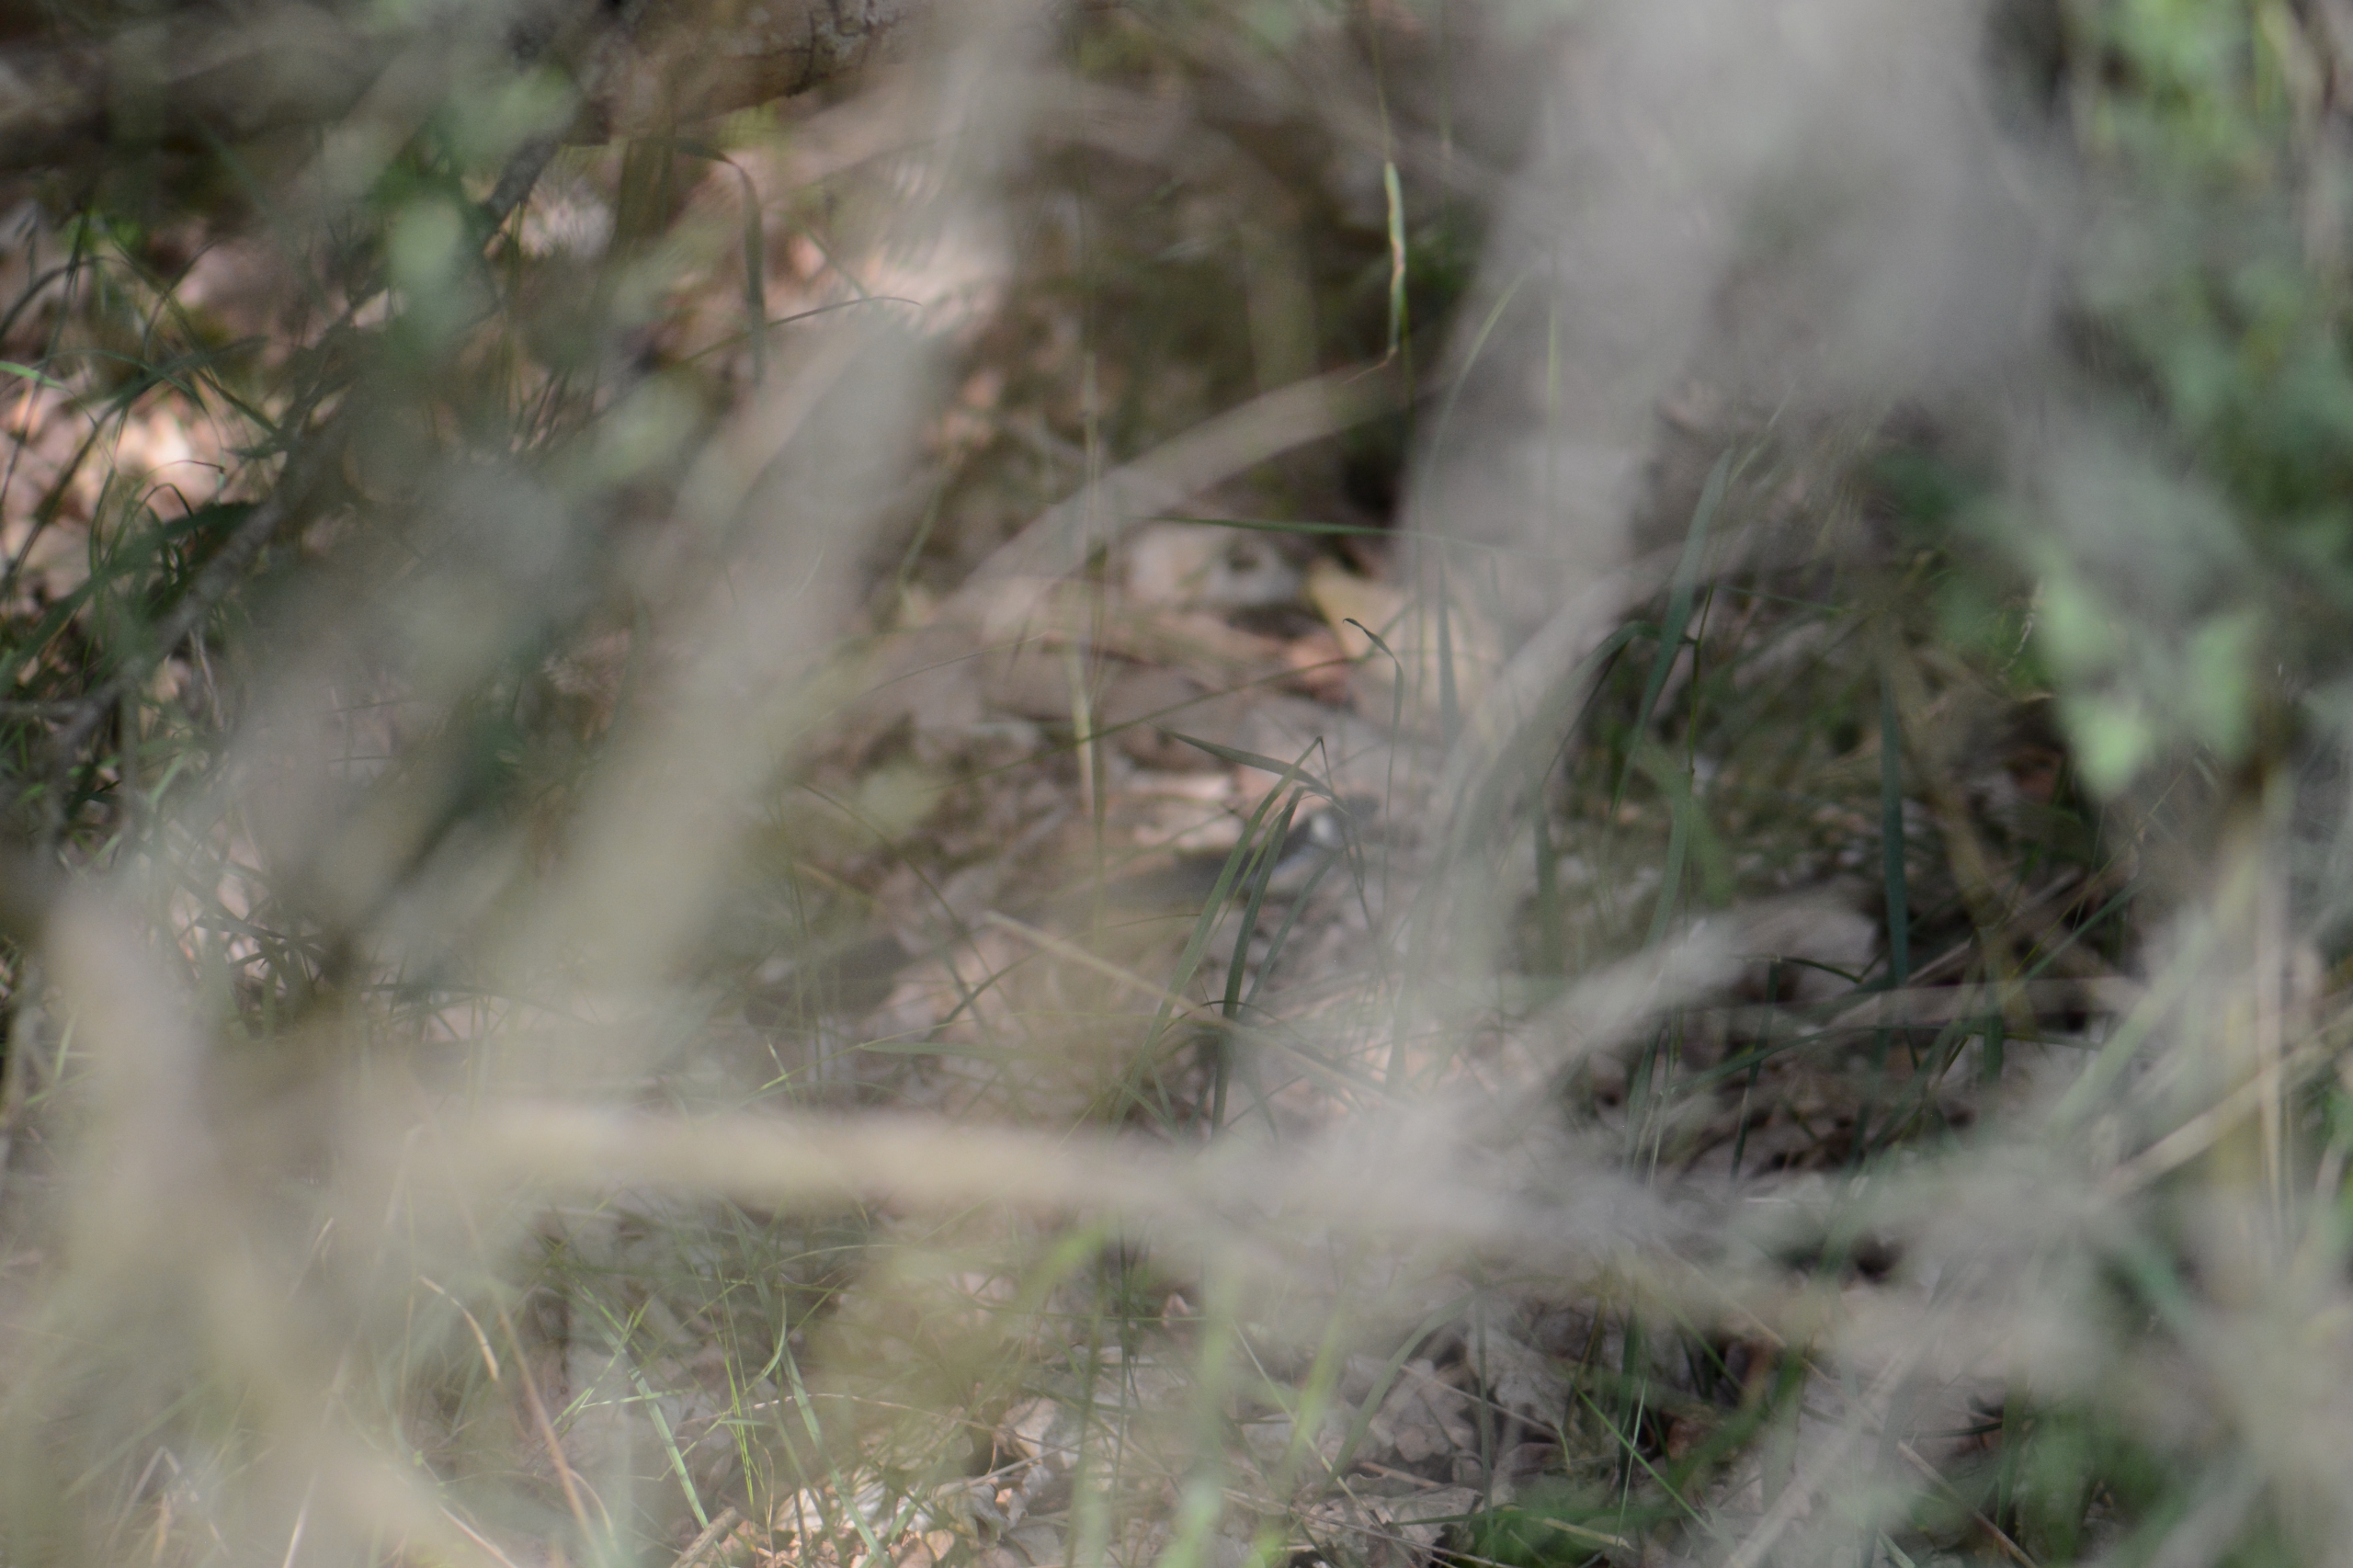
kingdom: Animalia
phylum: Chordata
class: Squamata
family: Colubridae
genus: Natrix
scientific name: Natrix natrix
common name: Snog
